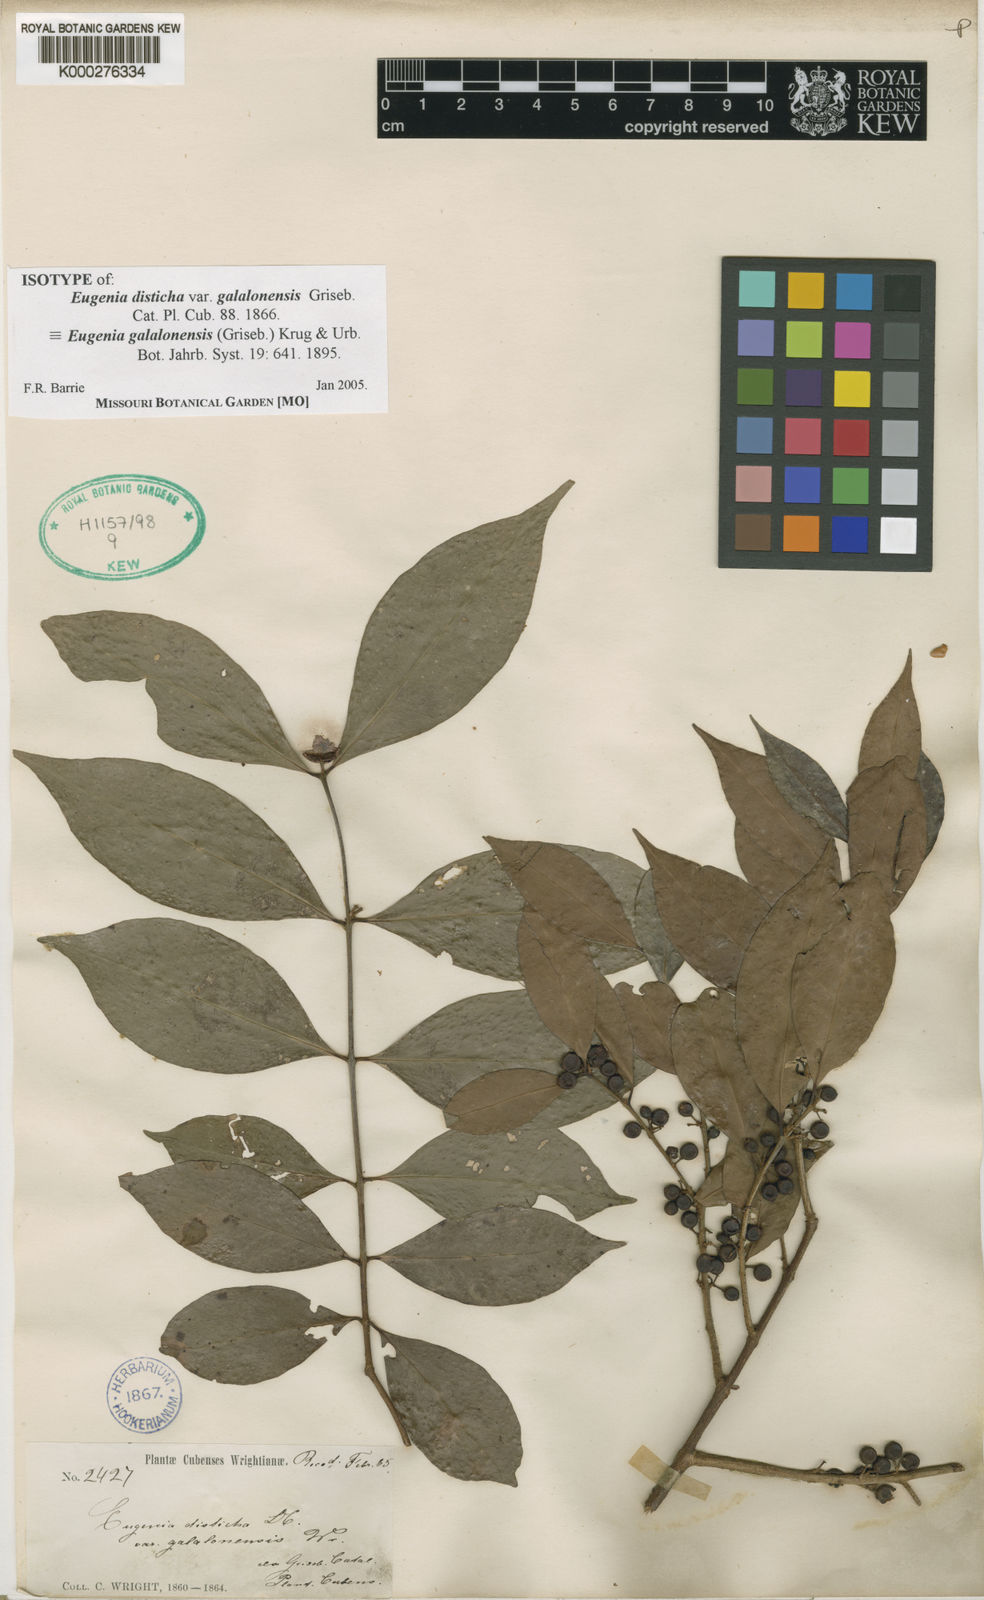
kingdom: Plantae
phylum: Tracheophyta
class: Magnoliopsida
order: Myrtales
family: Myrtaceae
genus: Eugenia
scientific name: Eugenia galalonensis
